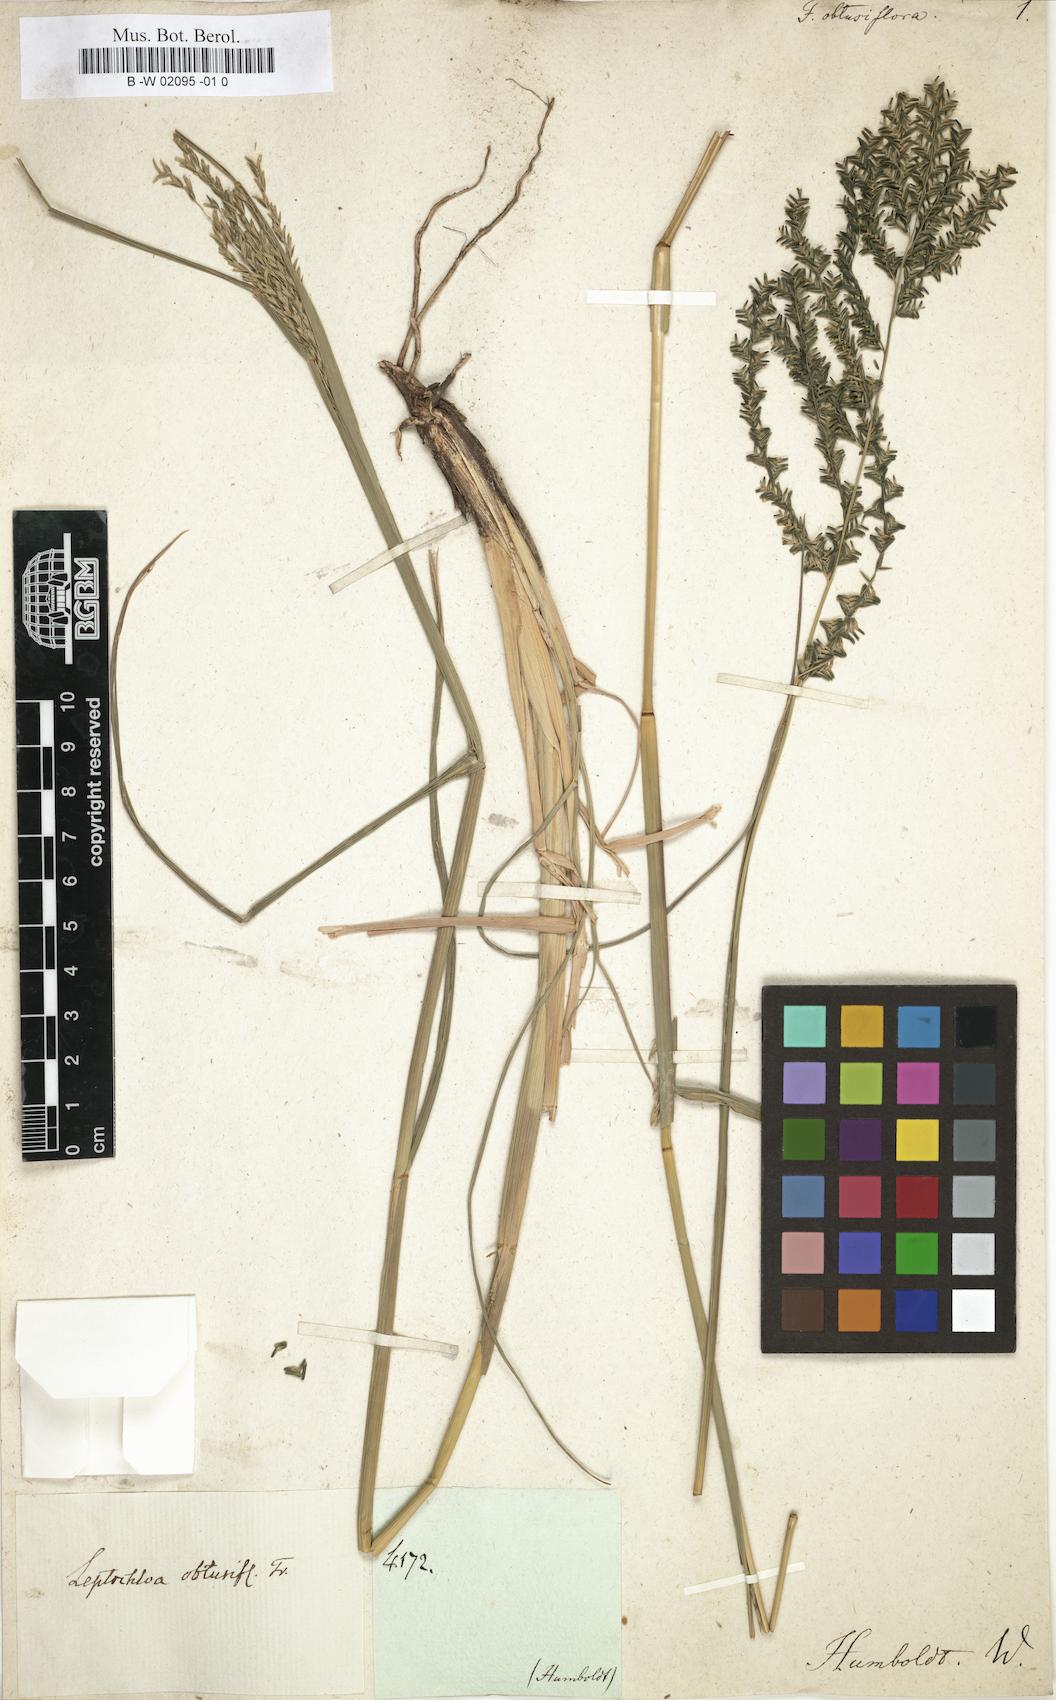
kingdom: Plantae
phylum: Tracheophyta
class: Liliopsida
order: Poales
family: Poaceae
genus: Disakisperma
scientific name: Disakisperma dubium
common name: Green sprangletop
